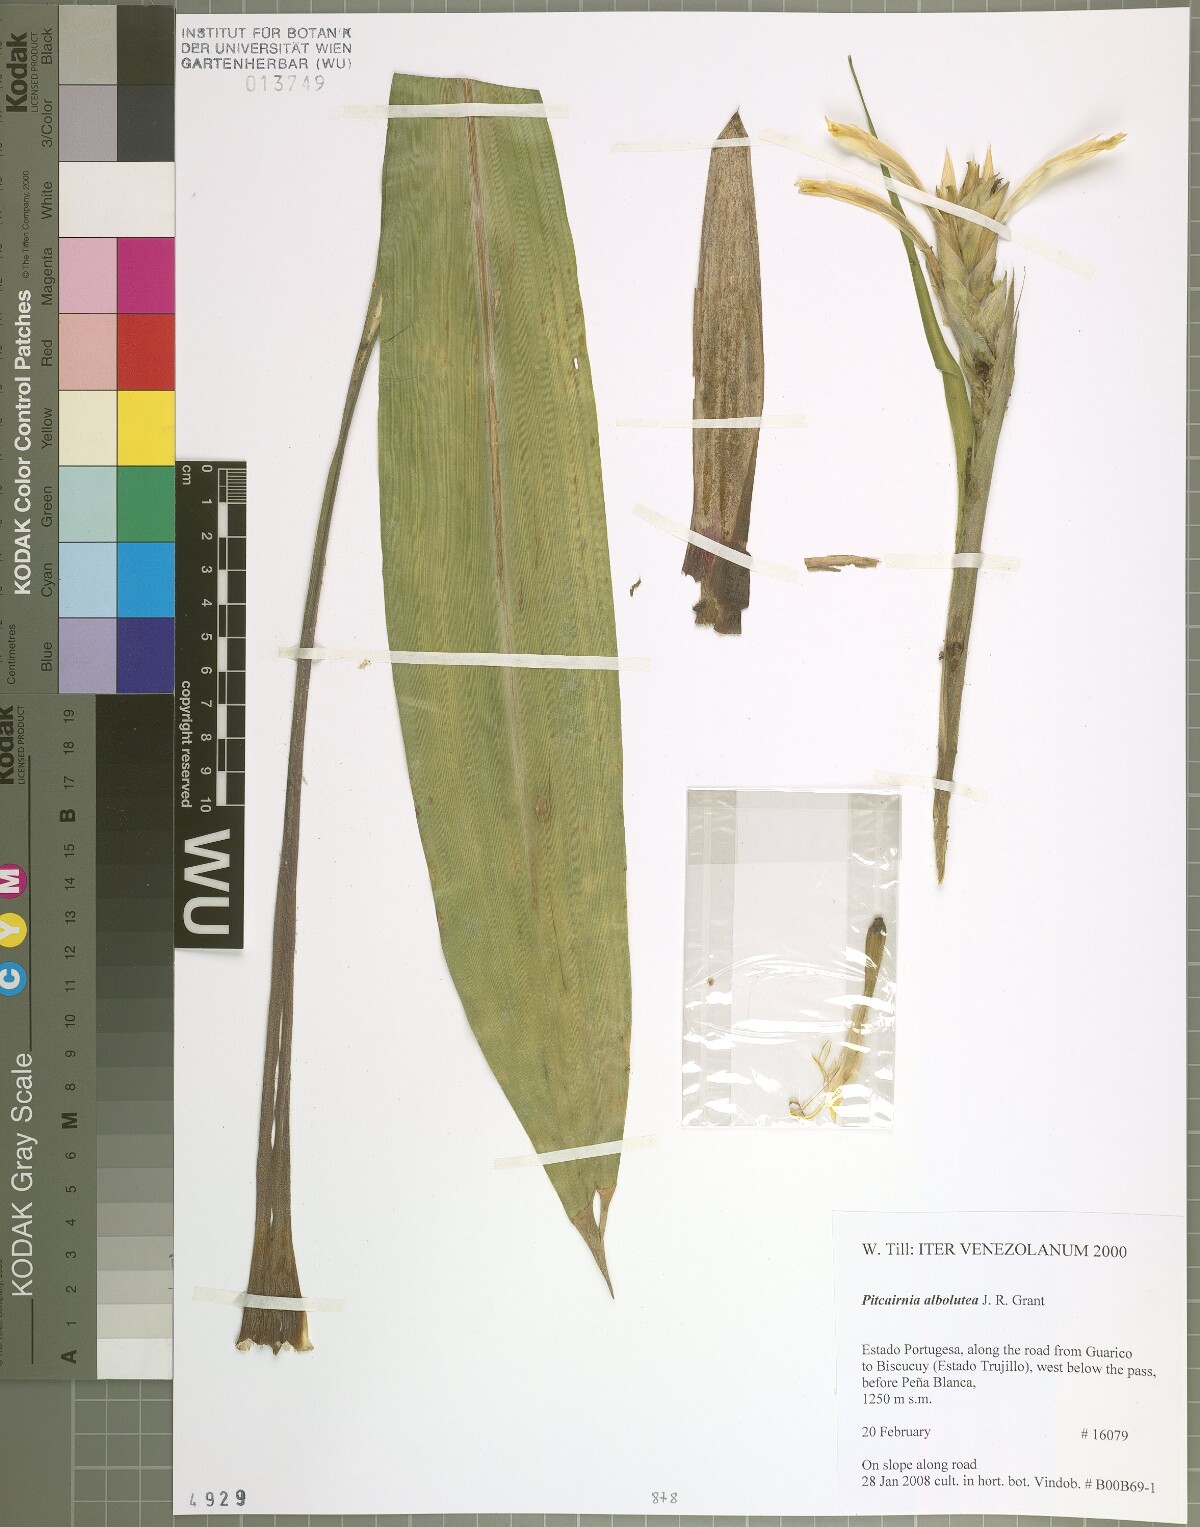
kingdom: Plantae
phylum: Tracheophyta
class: Liliopsida
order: Poales
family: Bromeliaceae
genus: Pitcairnia
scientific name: Pitcairnia albolutea
